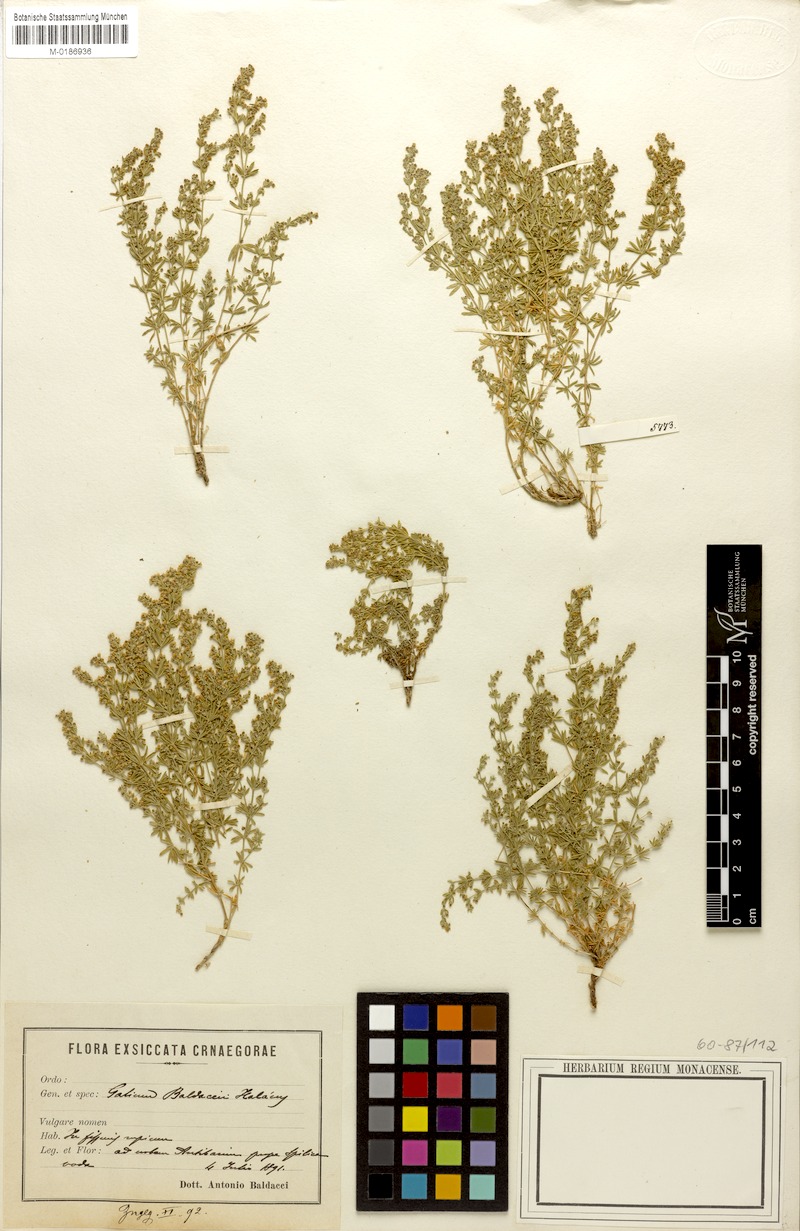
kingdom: Plantae
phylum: Tracheophyta
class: Magnoliopsida
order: Gentianales
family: Rubiaceae
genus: Thliphthisa
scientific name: Thliphthisa baldaccii
